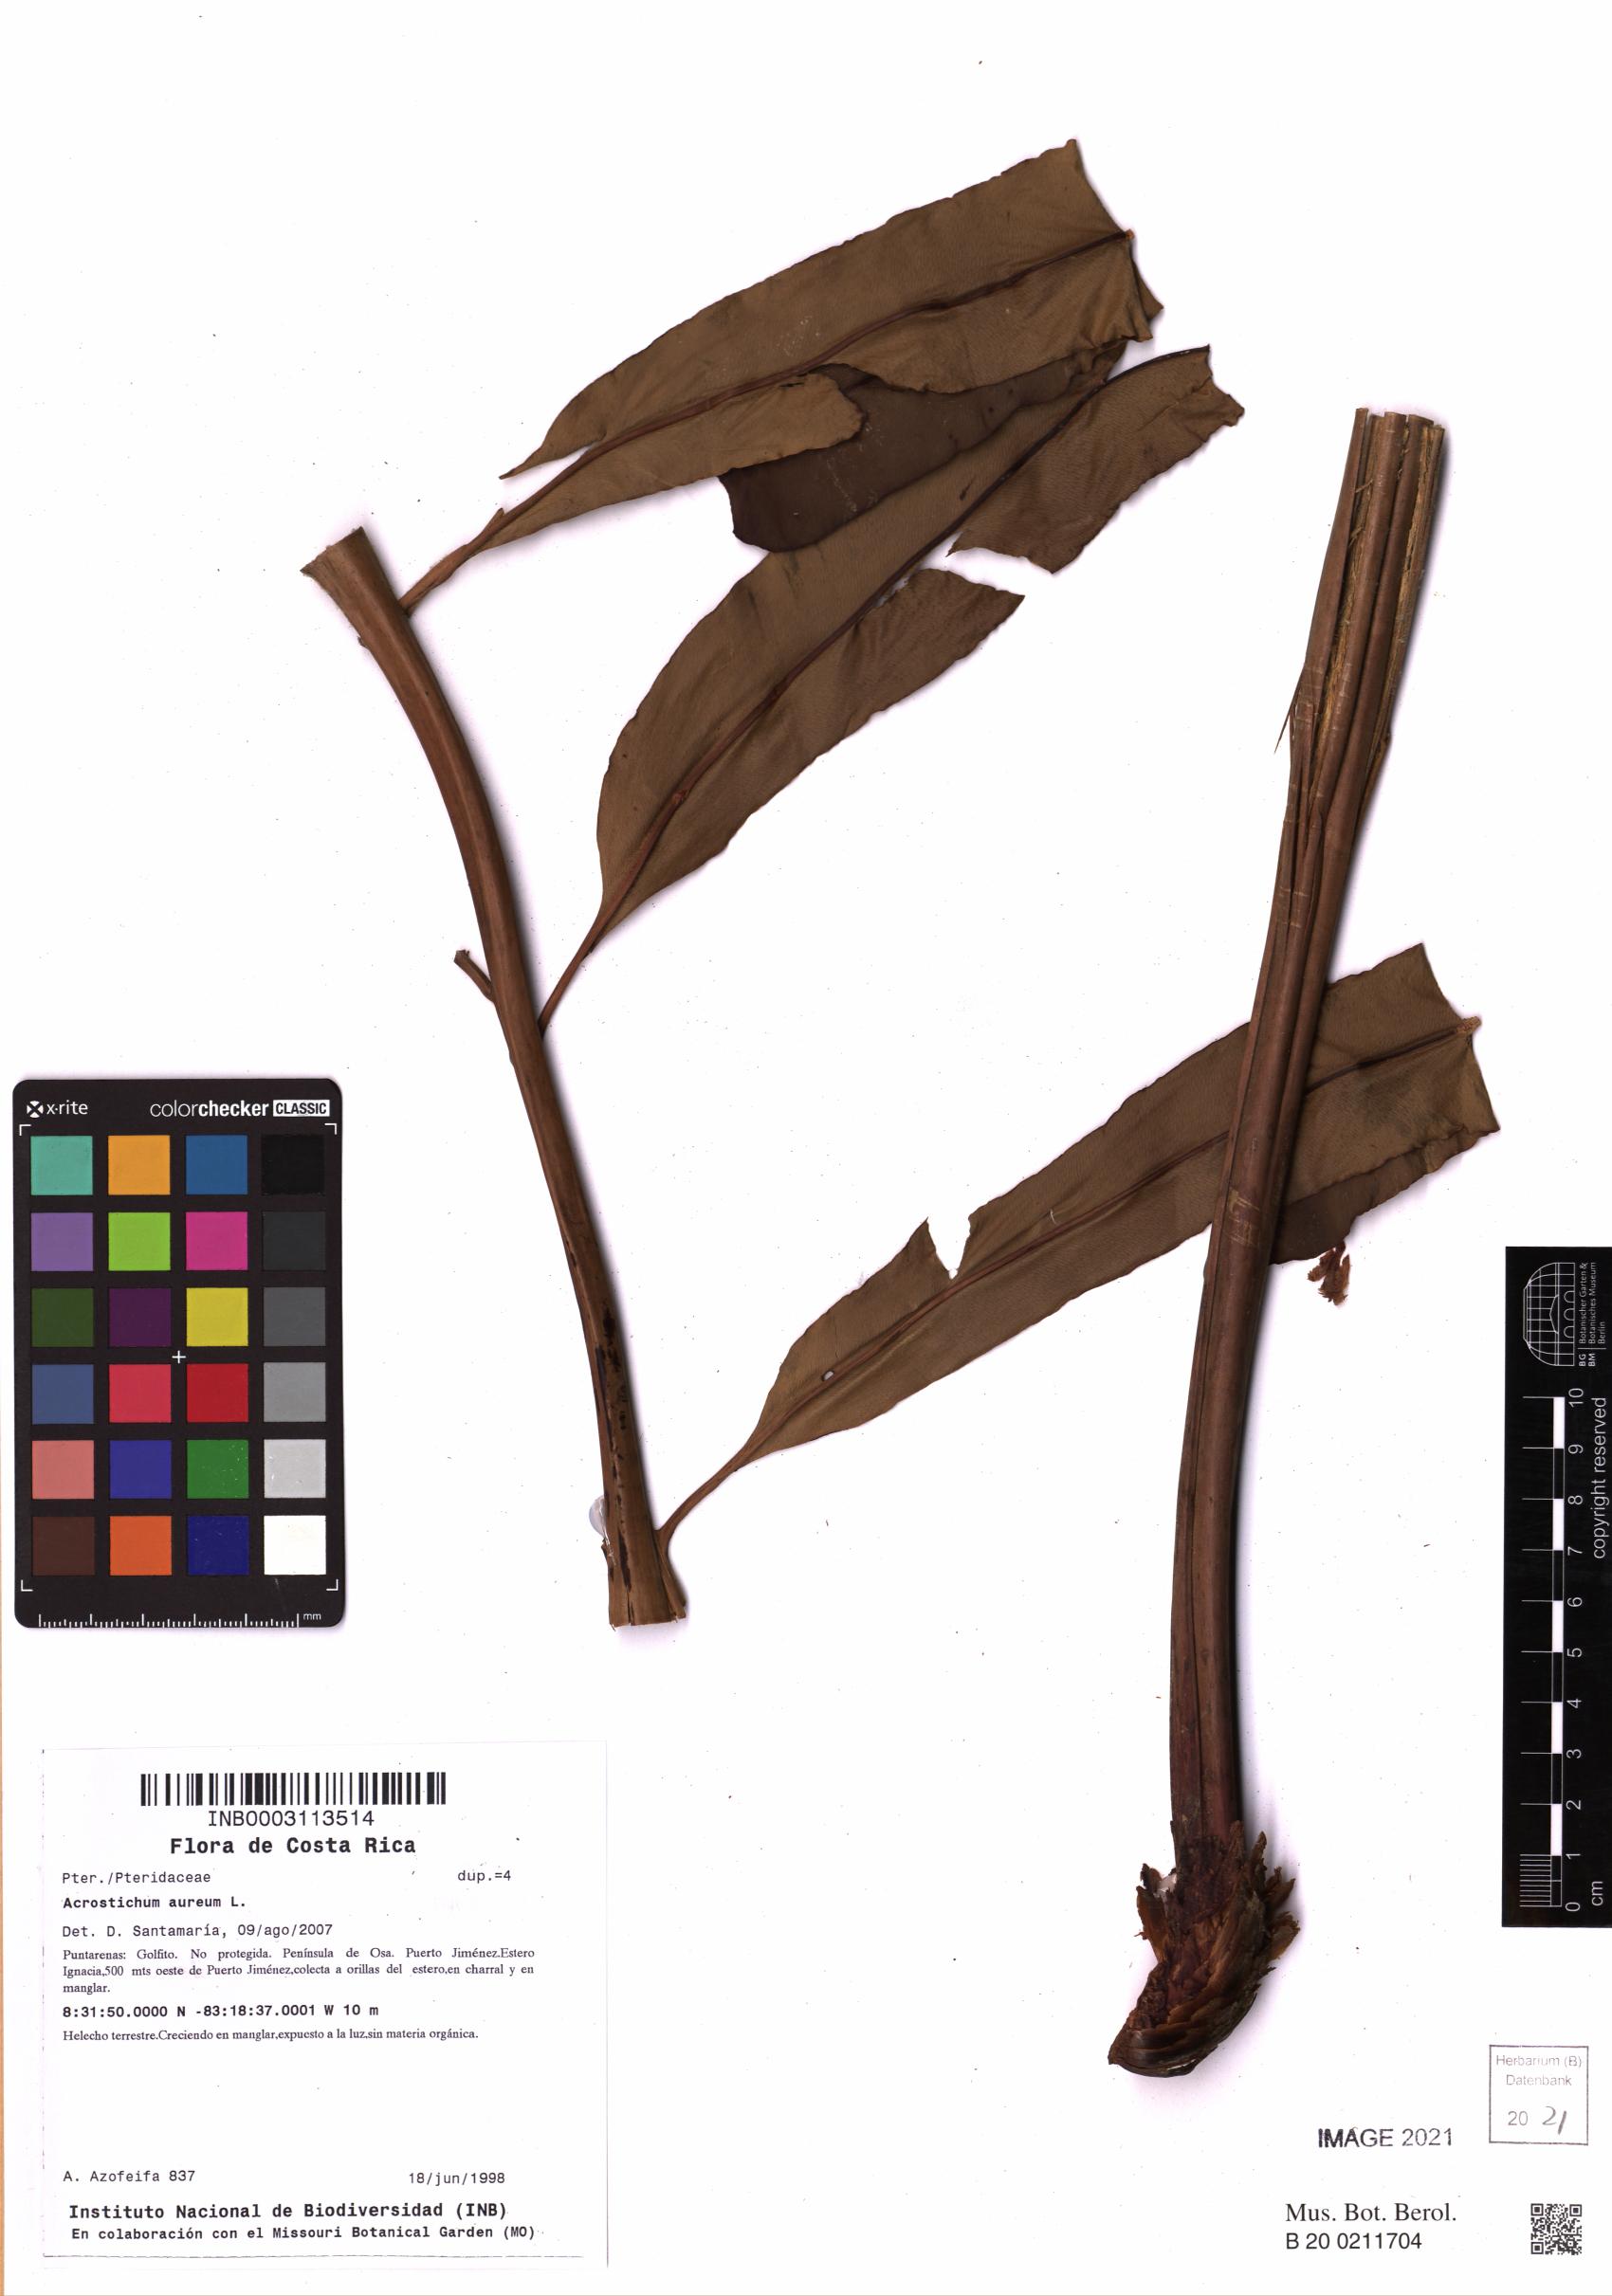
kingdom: Plantae
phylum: Tracheophyta
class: Polypodiopsida
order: Polypodiales
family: Pteridaceae
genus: Acrostichum
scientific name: Acrostichum aureum
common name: Leather fern
